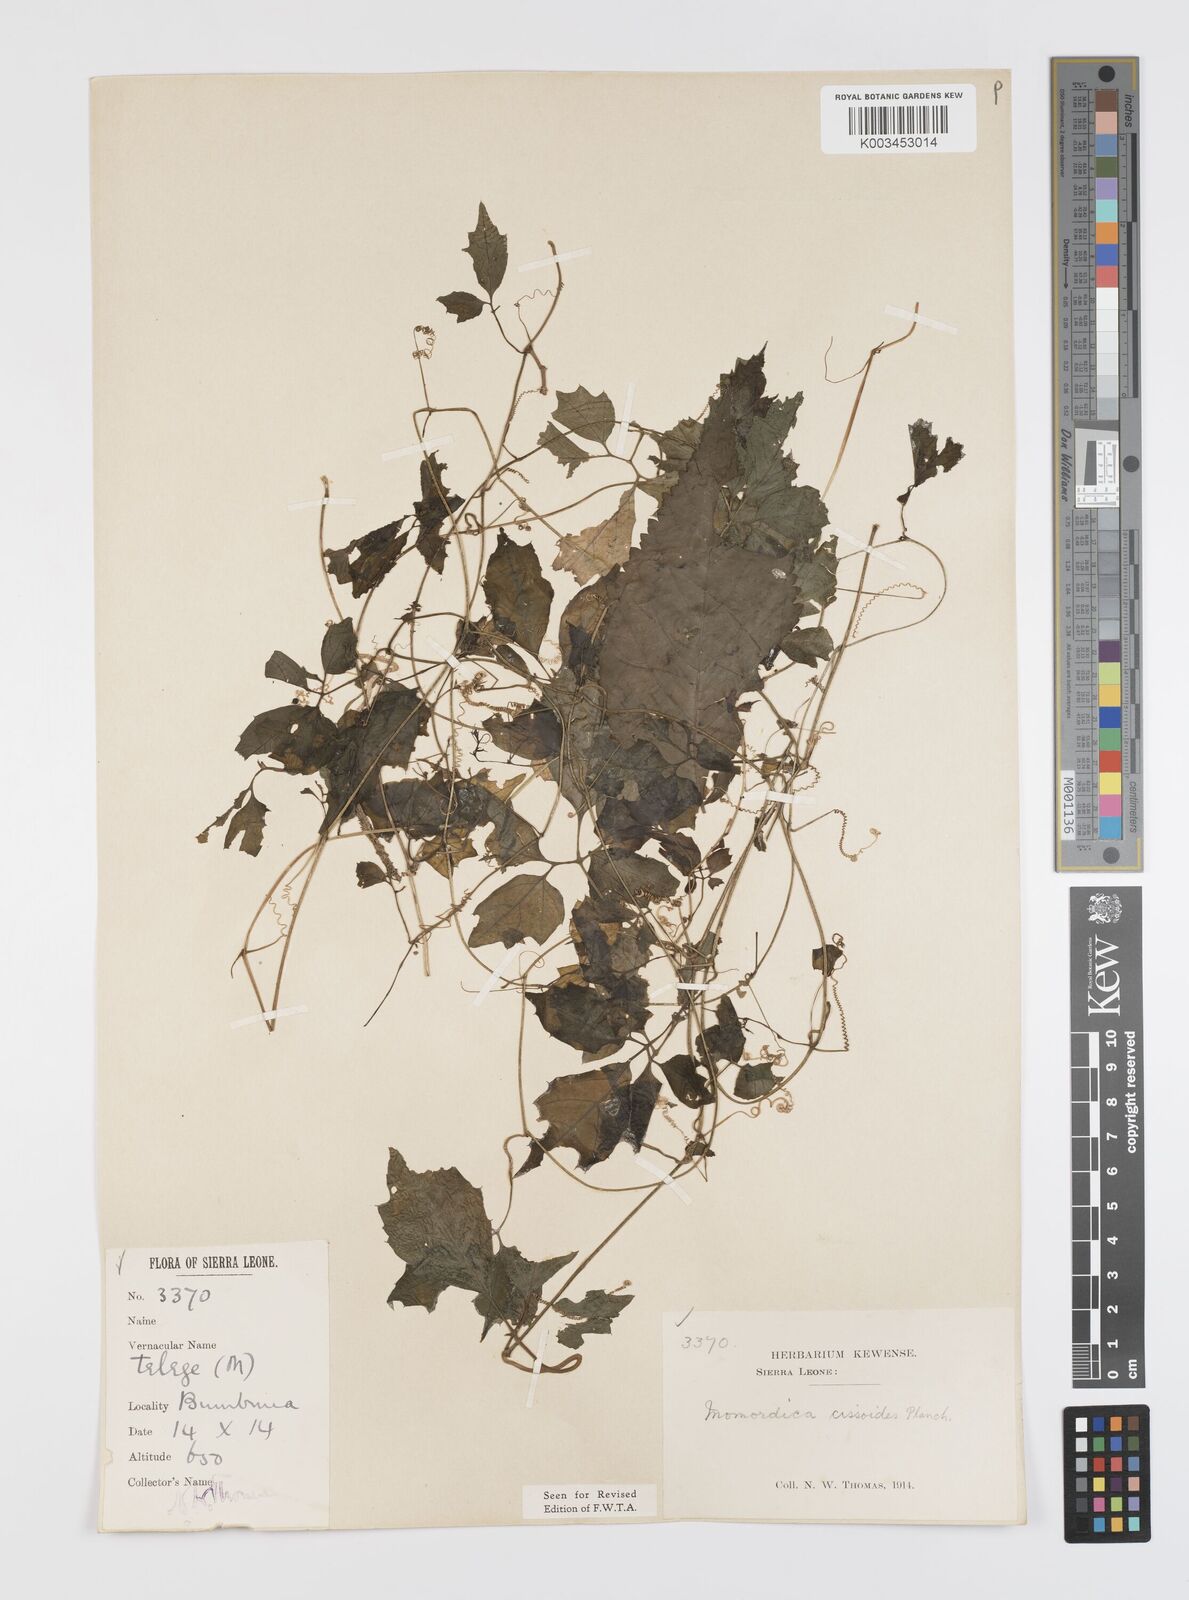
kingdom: Plantae
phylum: Tracheophyta
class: Magnoliopsida
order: Cucurbitales
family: Cucurbitaceae
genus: Momordica
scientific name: Momordica cissoides
